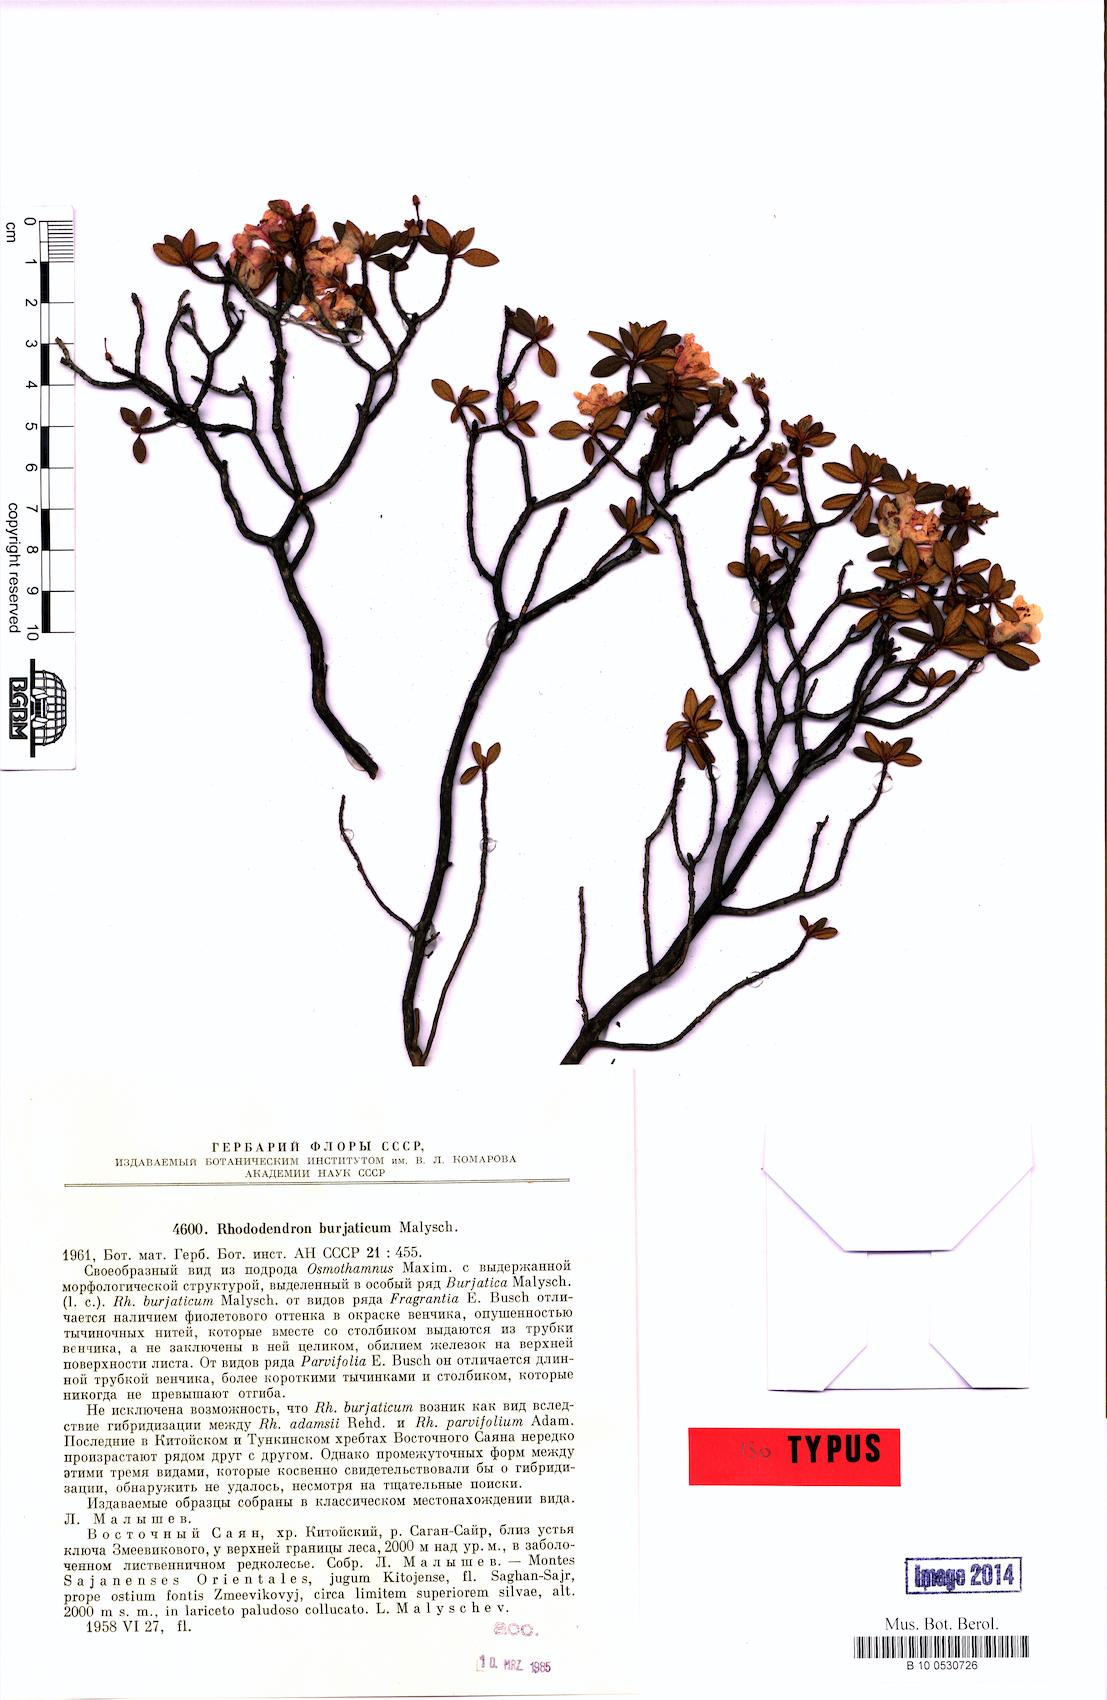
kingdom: Plantae
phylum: Tracheophyta
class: Magnoliopsida
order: Ericales
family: Ericaceae
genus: Rhododendron
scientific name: Rhododendron burjaticum
